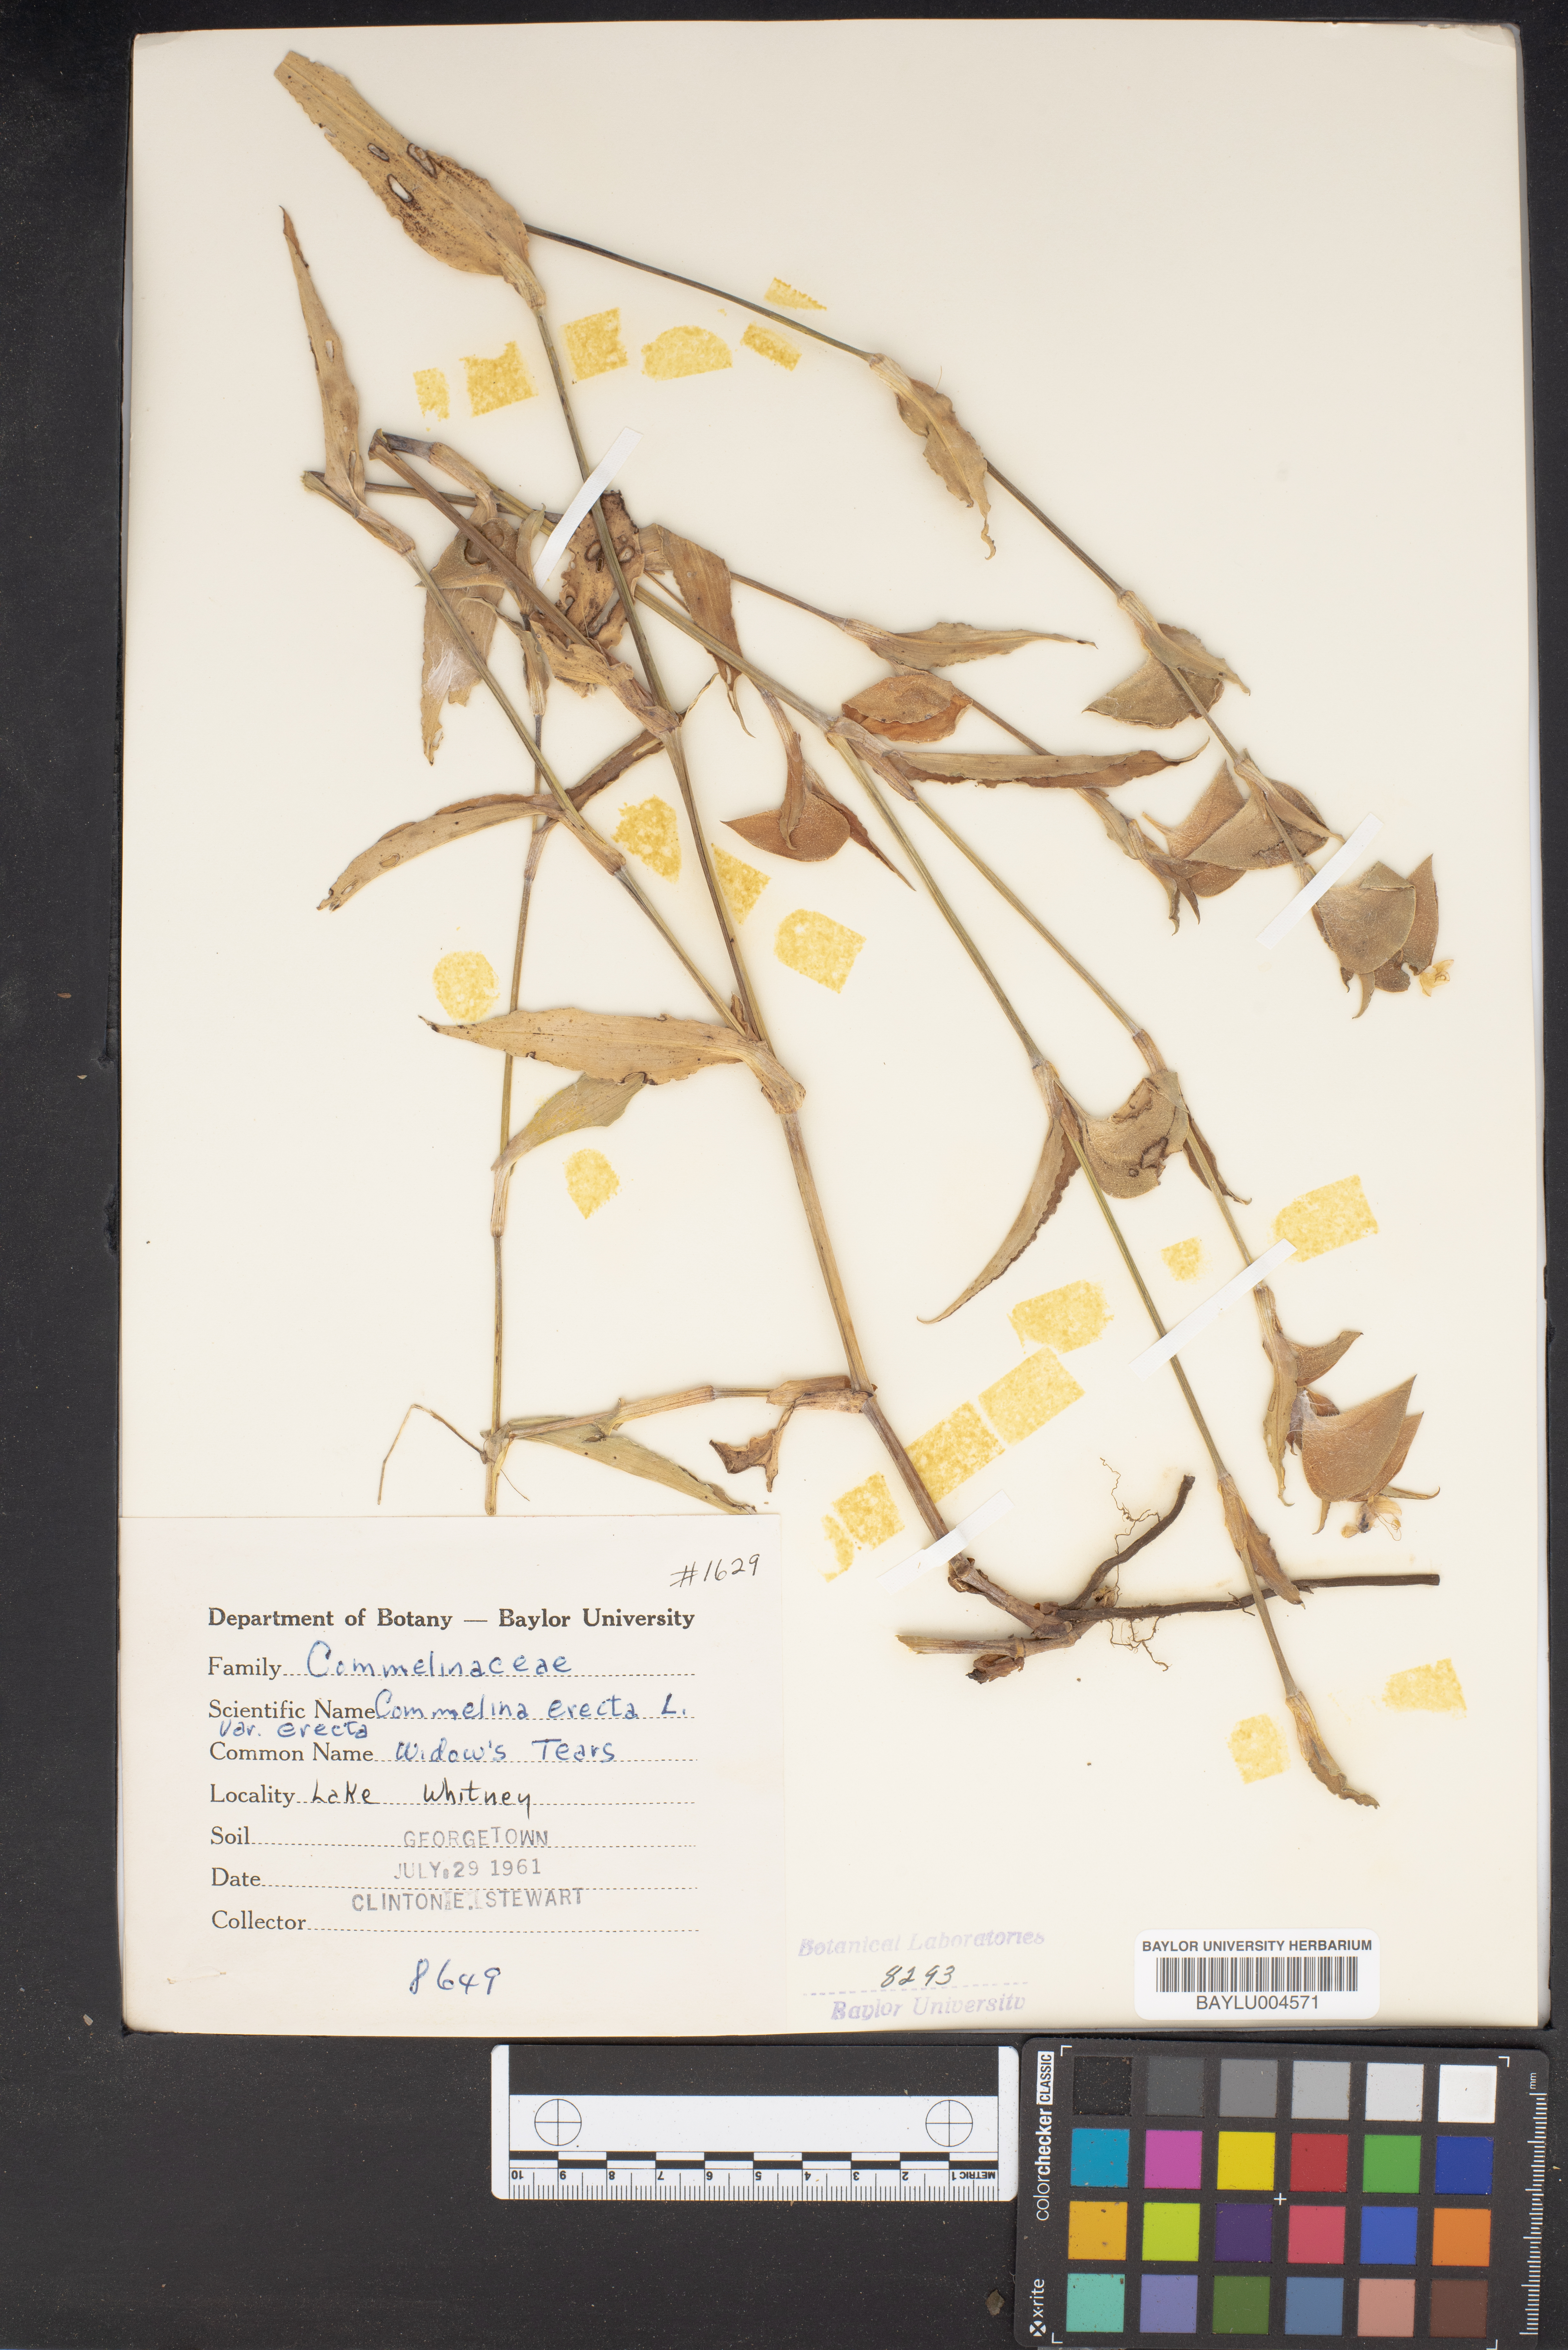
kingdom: Plantae
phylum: Tracheophyta
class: Liliopsida
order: Commelinales
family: Commelinaceae
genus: Commelina
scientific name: Commelina erecta
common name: Blousel blommetjie
